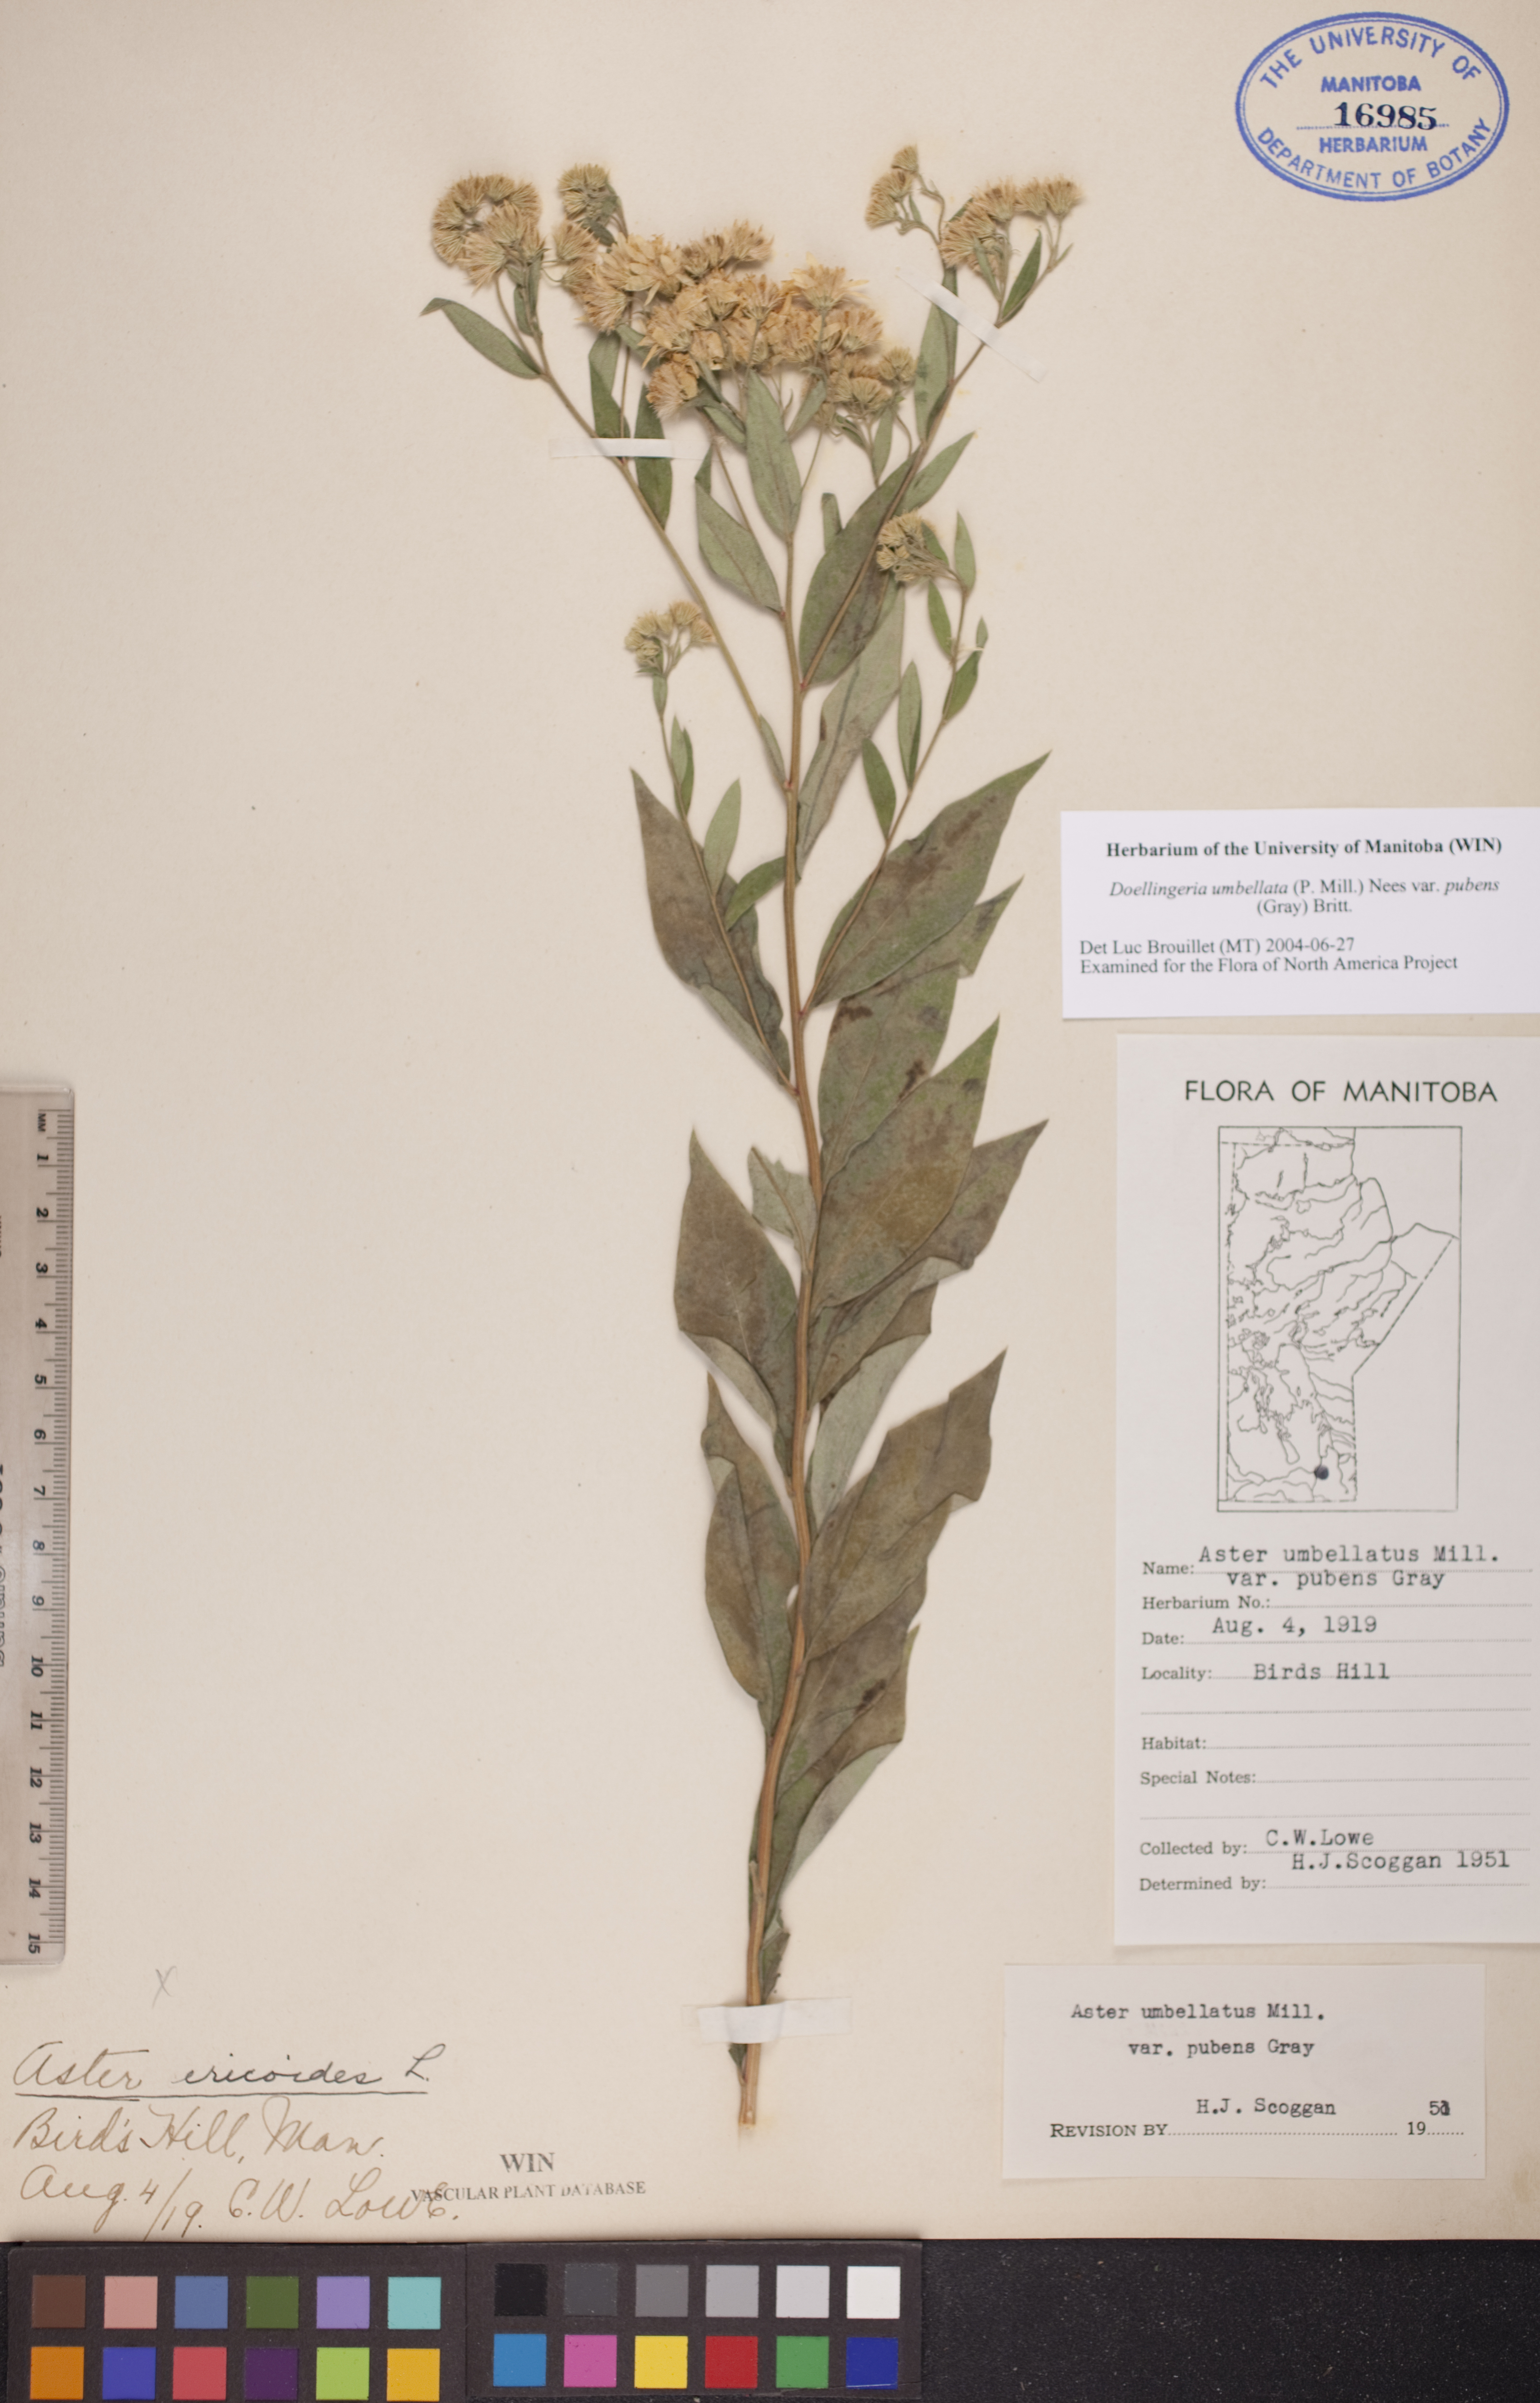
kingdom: Plantae
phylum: Tracheophyta
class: Magnoliopsida
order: Asterales
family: Asteraceae
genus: Doellingeria
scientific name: Doellingeria umbellata
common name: Flat-top white aster
